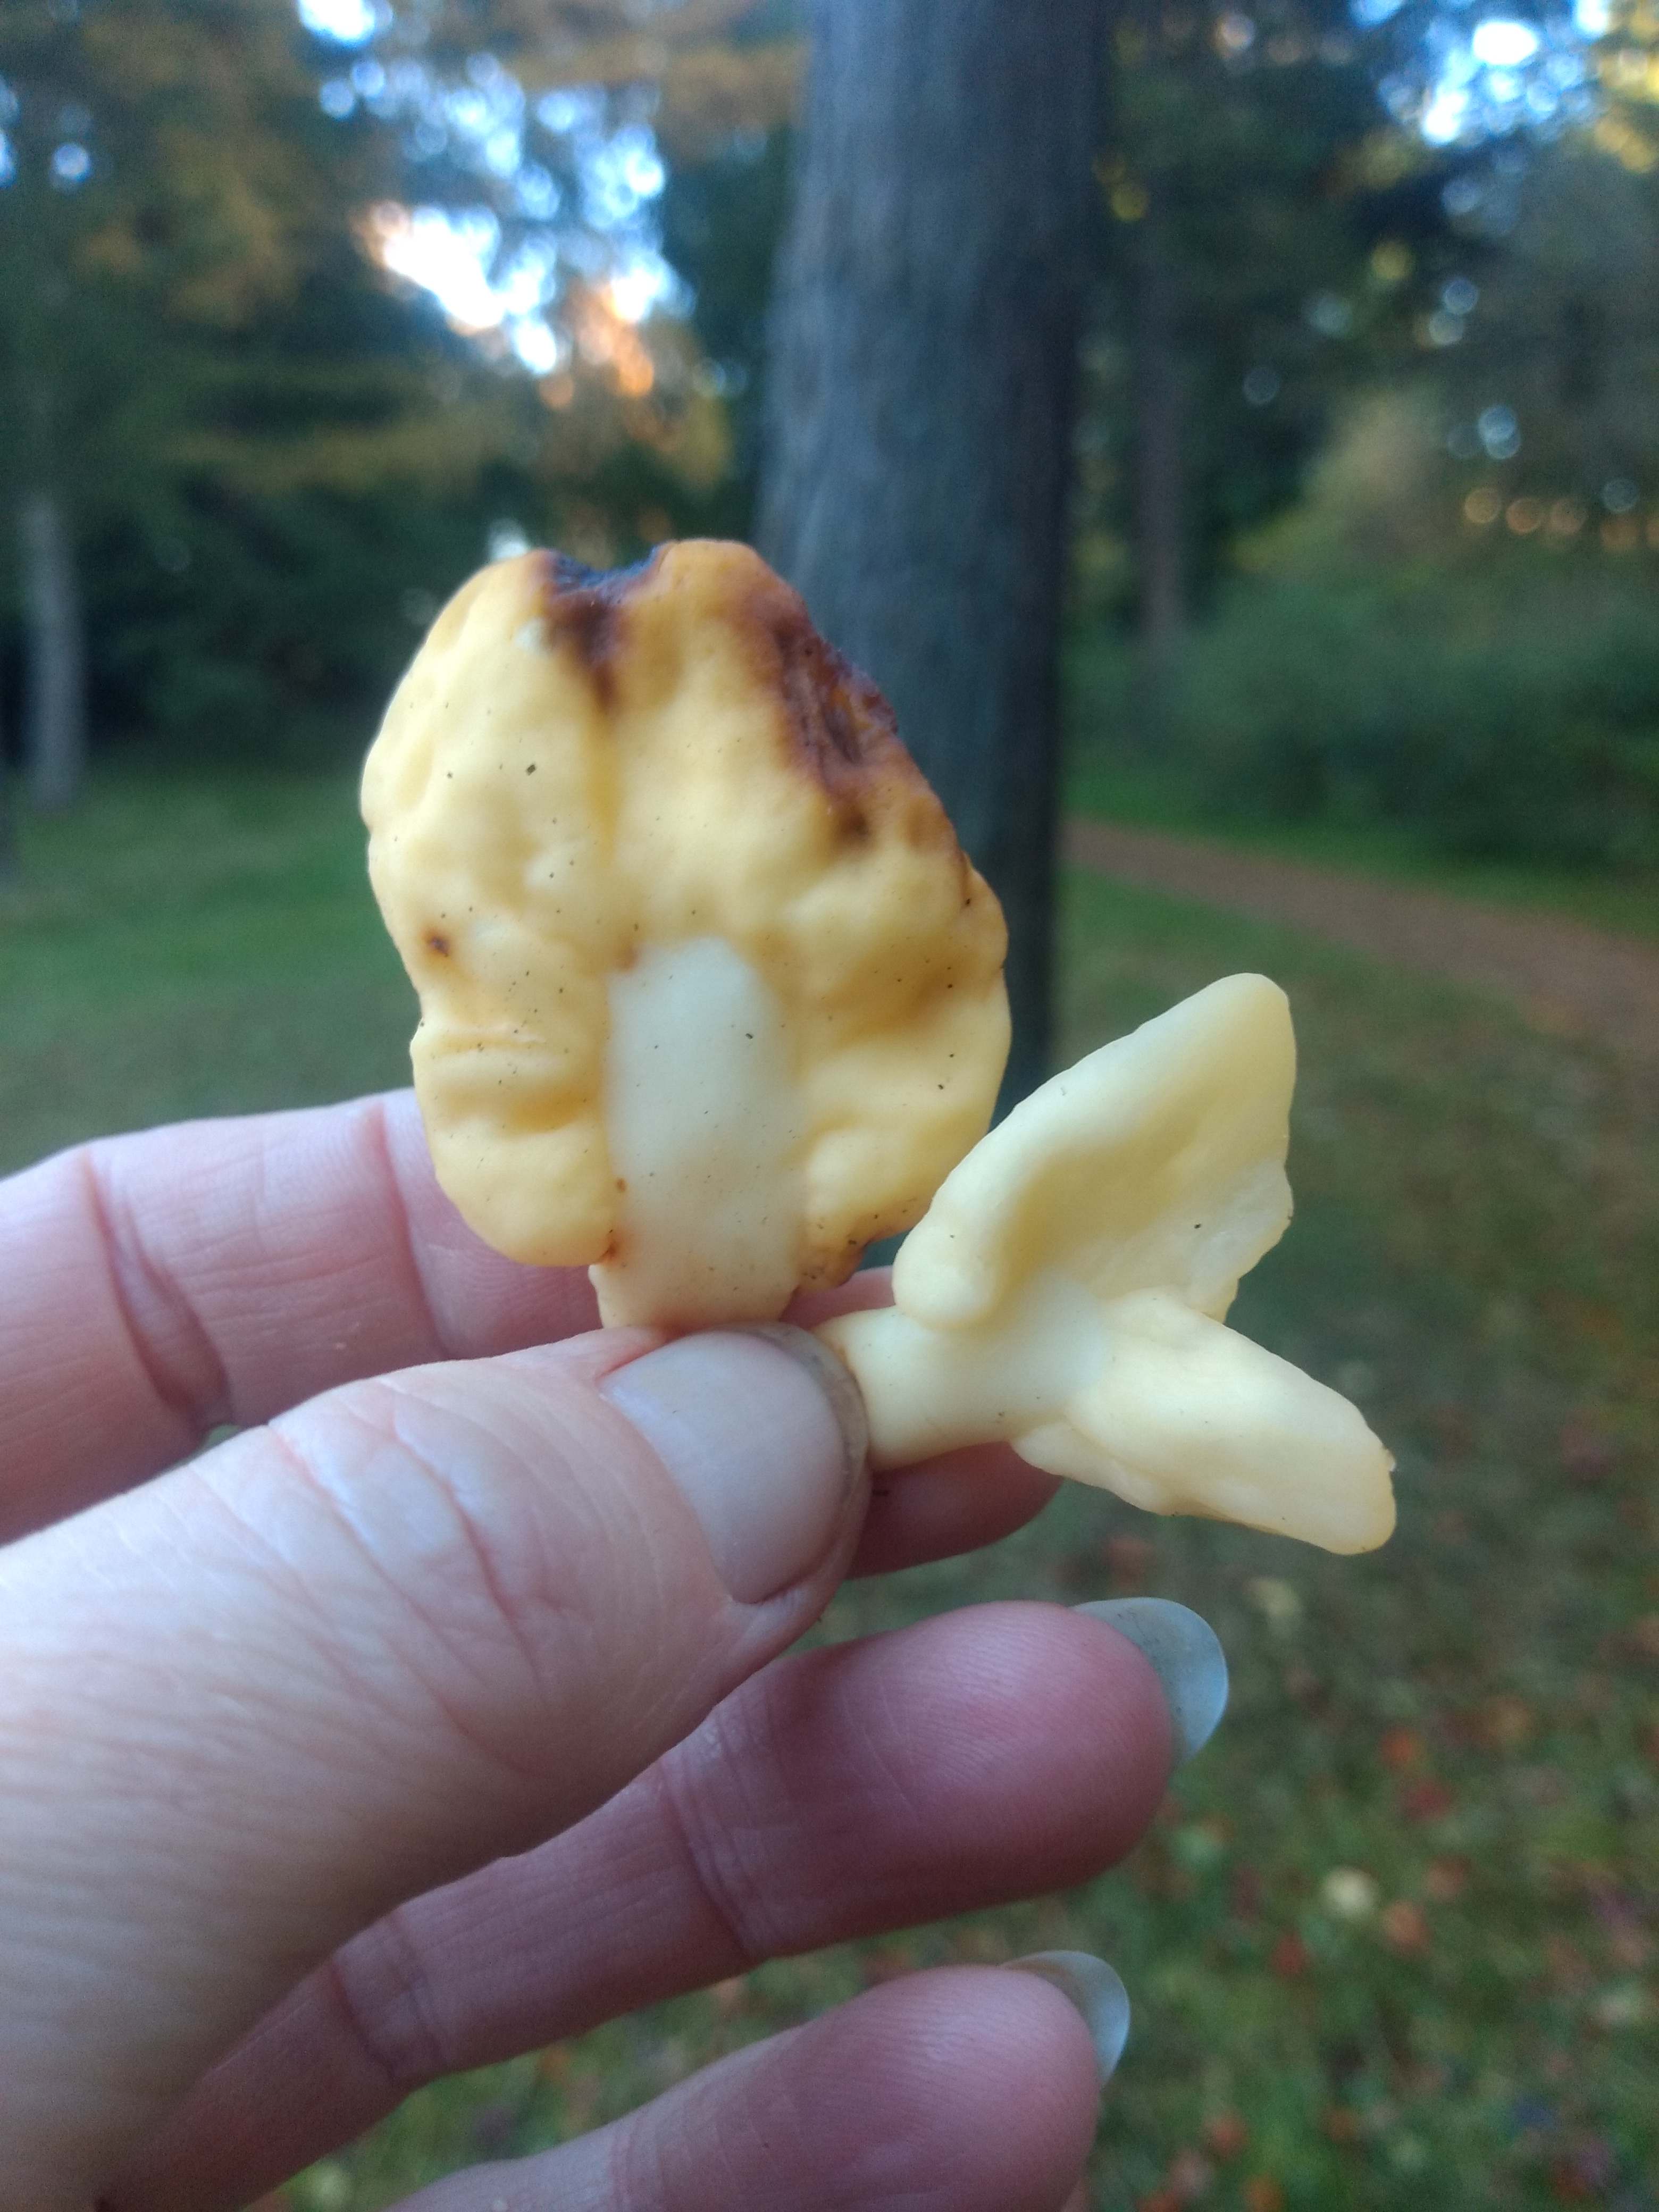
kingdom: Fungi
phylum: Ascomycota
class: Leotiomycetes
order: Rhytismatales
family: Cudoniaceae
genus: Spathularia
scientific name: Spathularia flavida
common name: gul spatelsvamp
